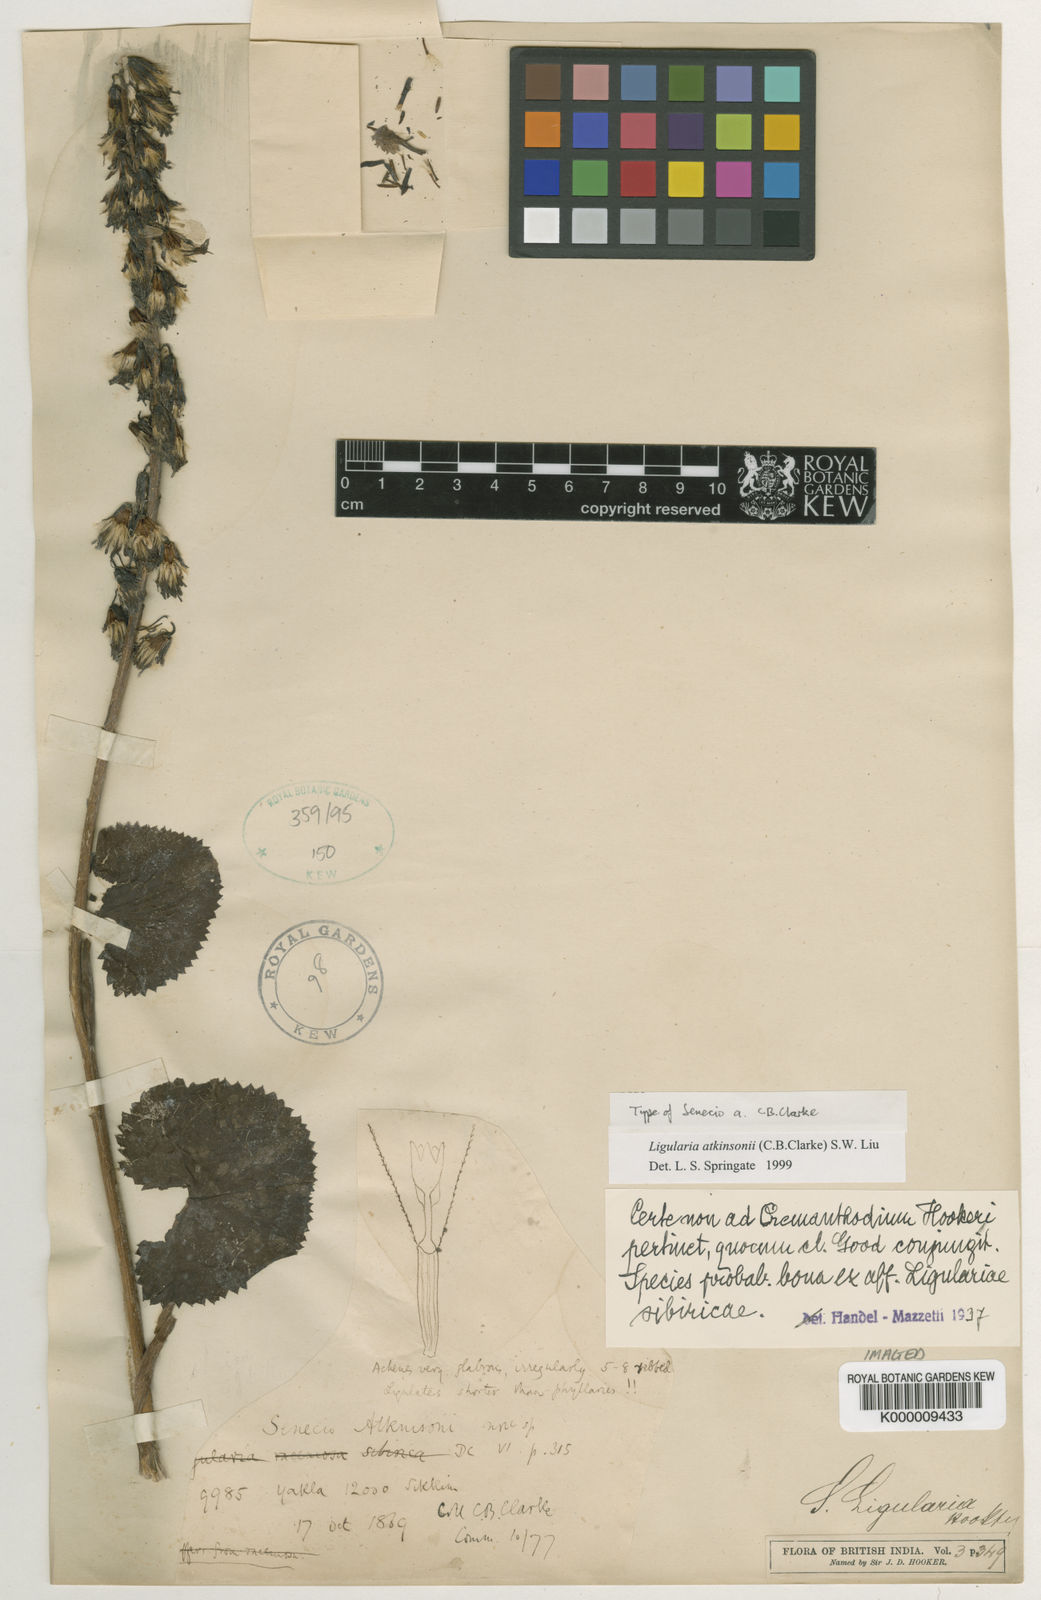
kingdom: Plantae
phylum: Tracheophyta
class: Magnoliopsida
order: Asterales
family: Asteraceae
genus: Ligularia
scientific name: Ligularia fischeri
